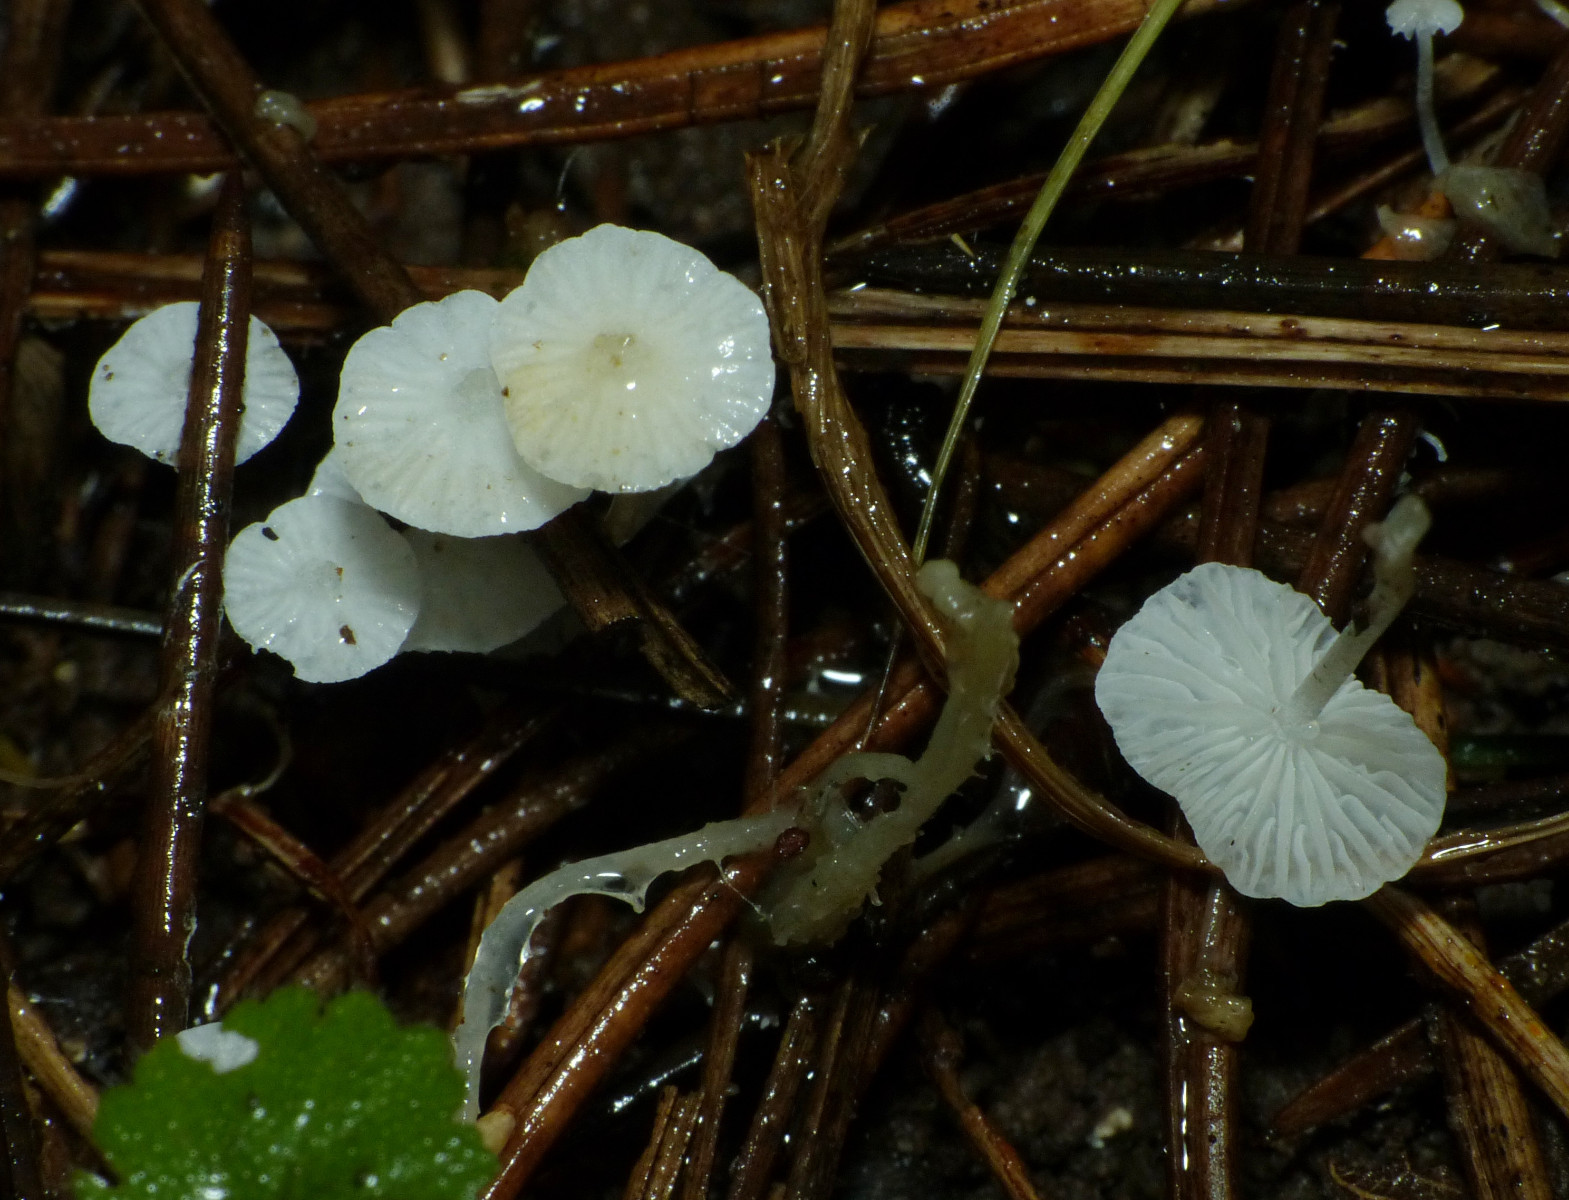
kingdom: Fungi
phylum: Basidiomycota
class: Agaricomycetes
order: Agaricales
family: Mycenaceae
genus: Hemimycena
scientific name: Hemimycena
